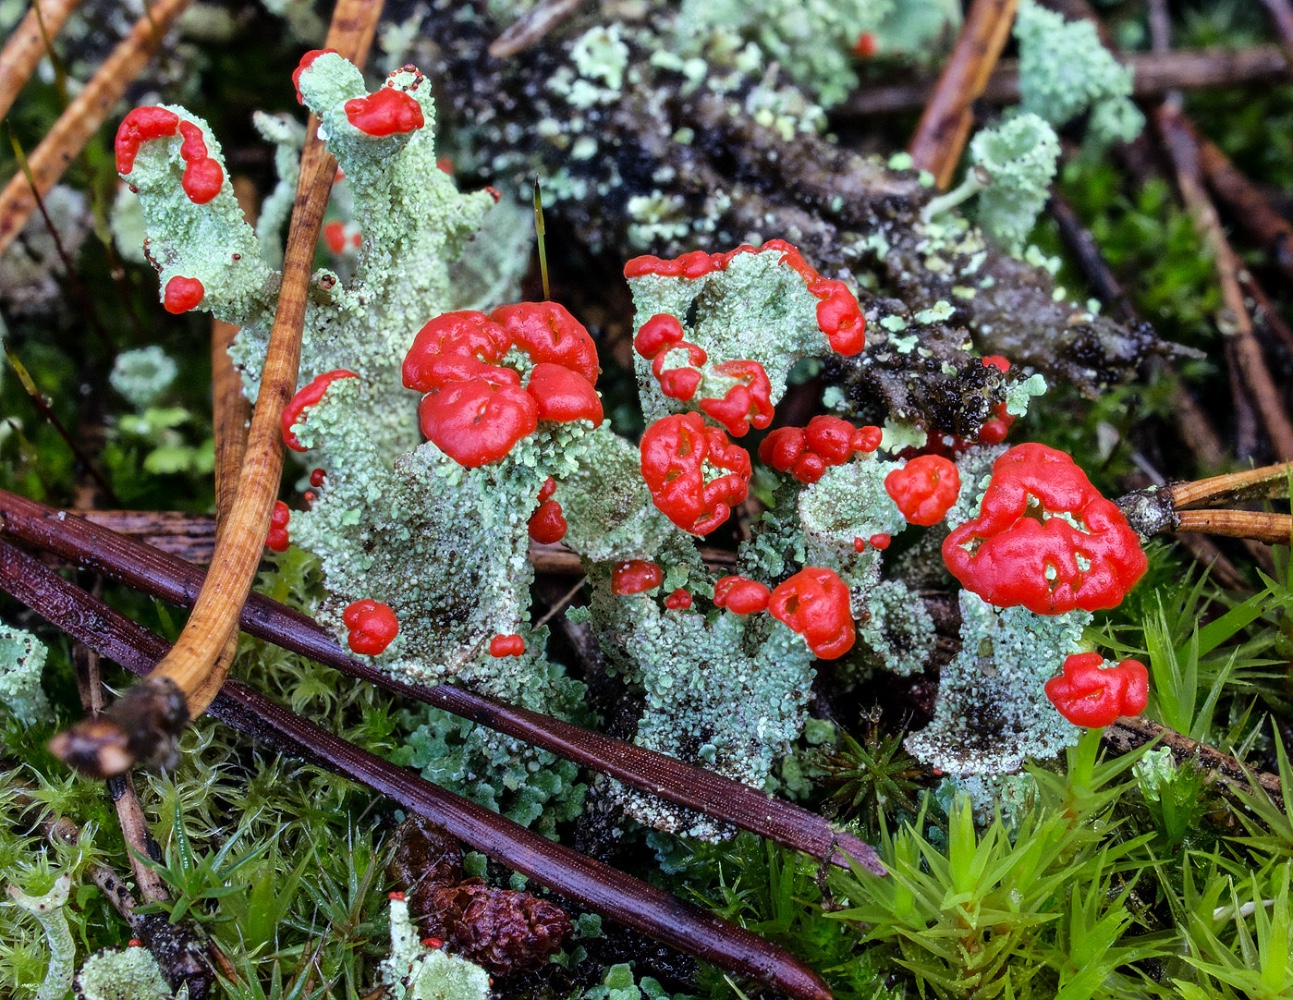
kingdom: Fungi
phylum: Ascomycota
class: Lecanoromycetes
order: Lecanorales
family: Cladoniaceae
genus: Cladonia
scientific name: Cladonia diversa
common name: rød bægerlav
